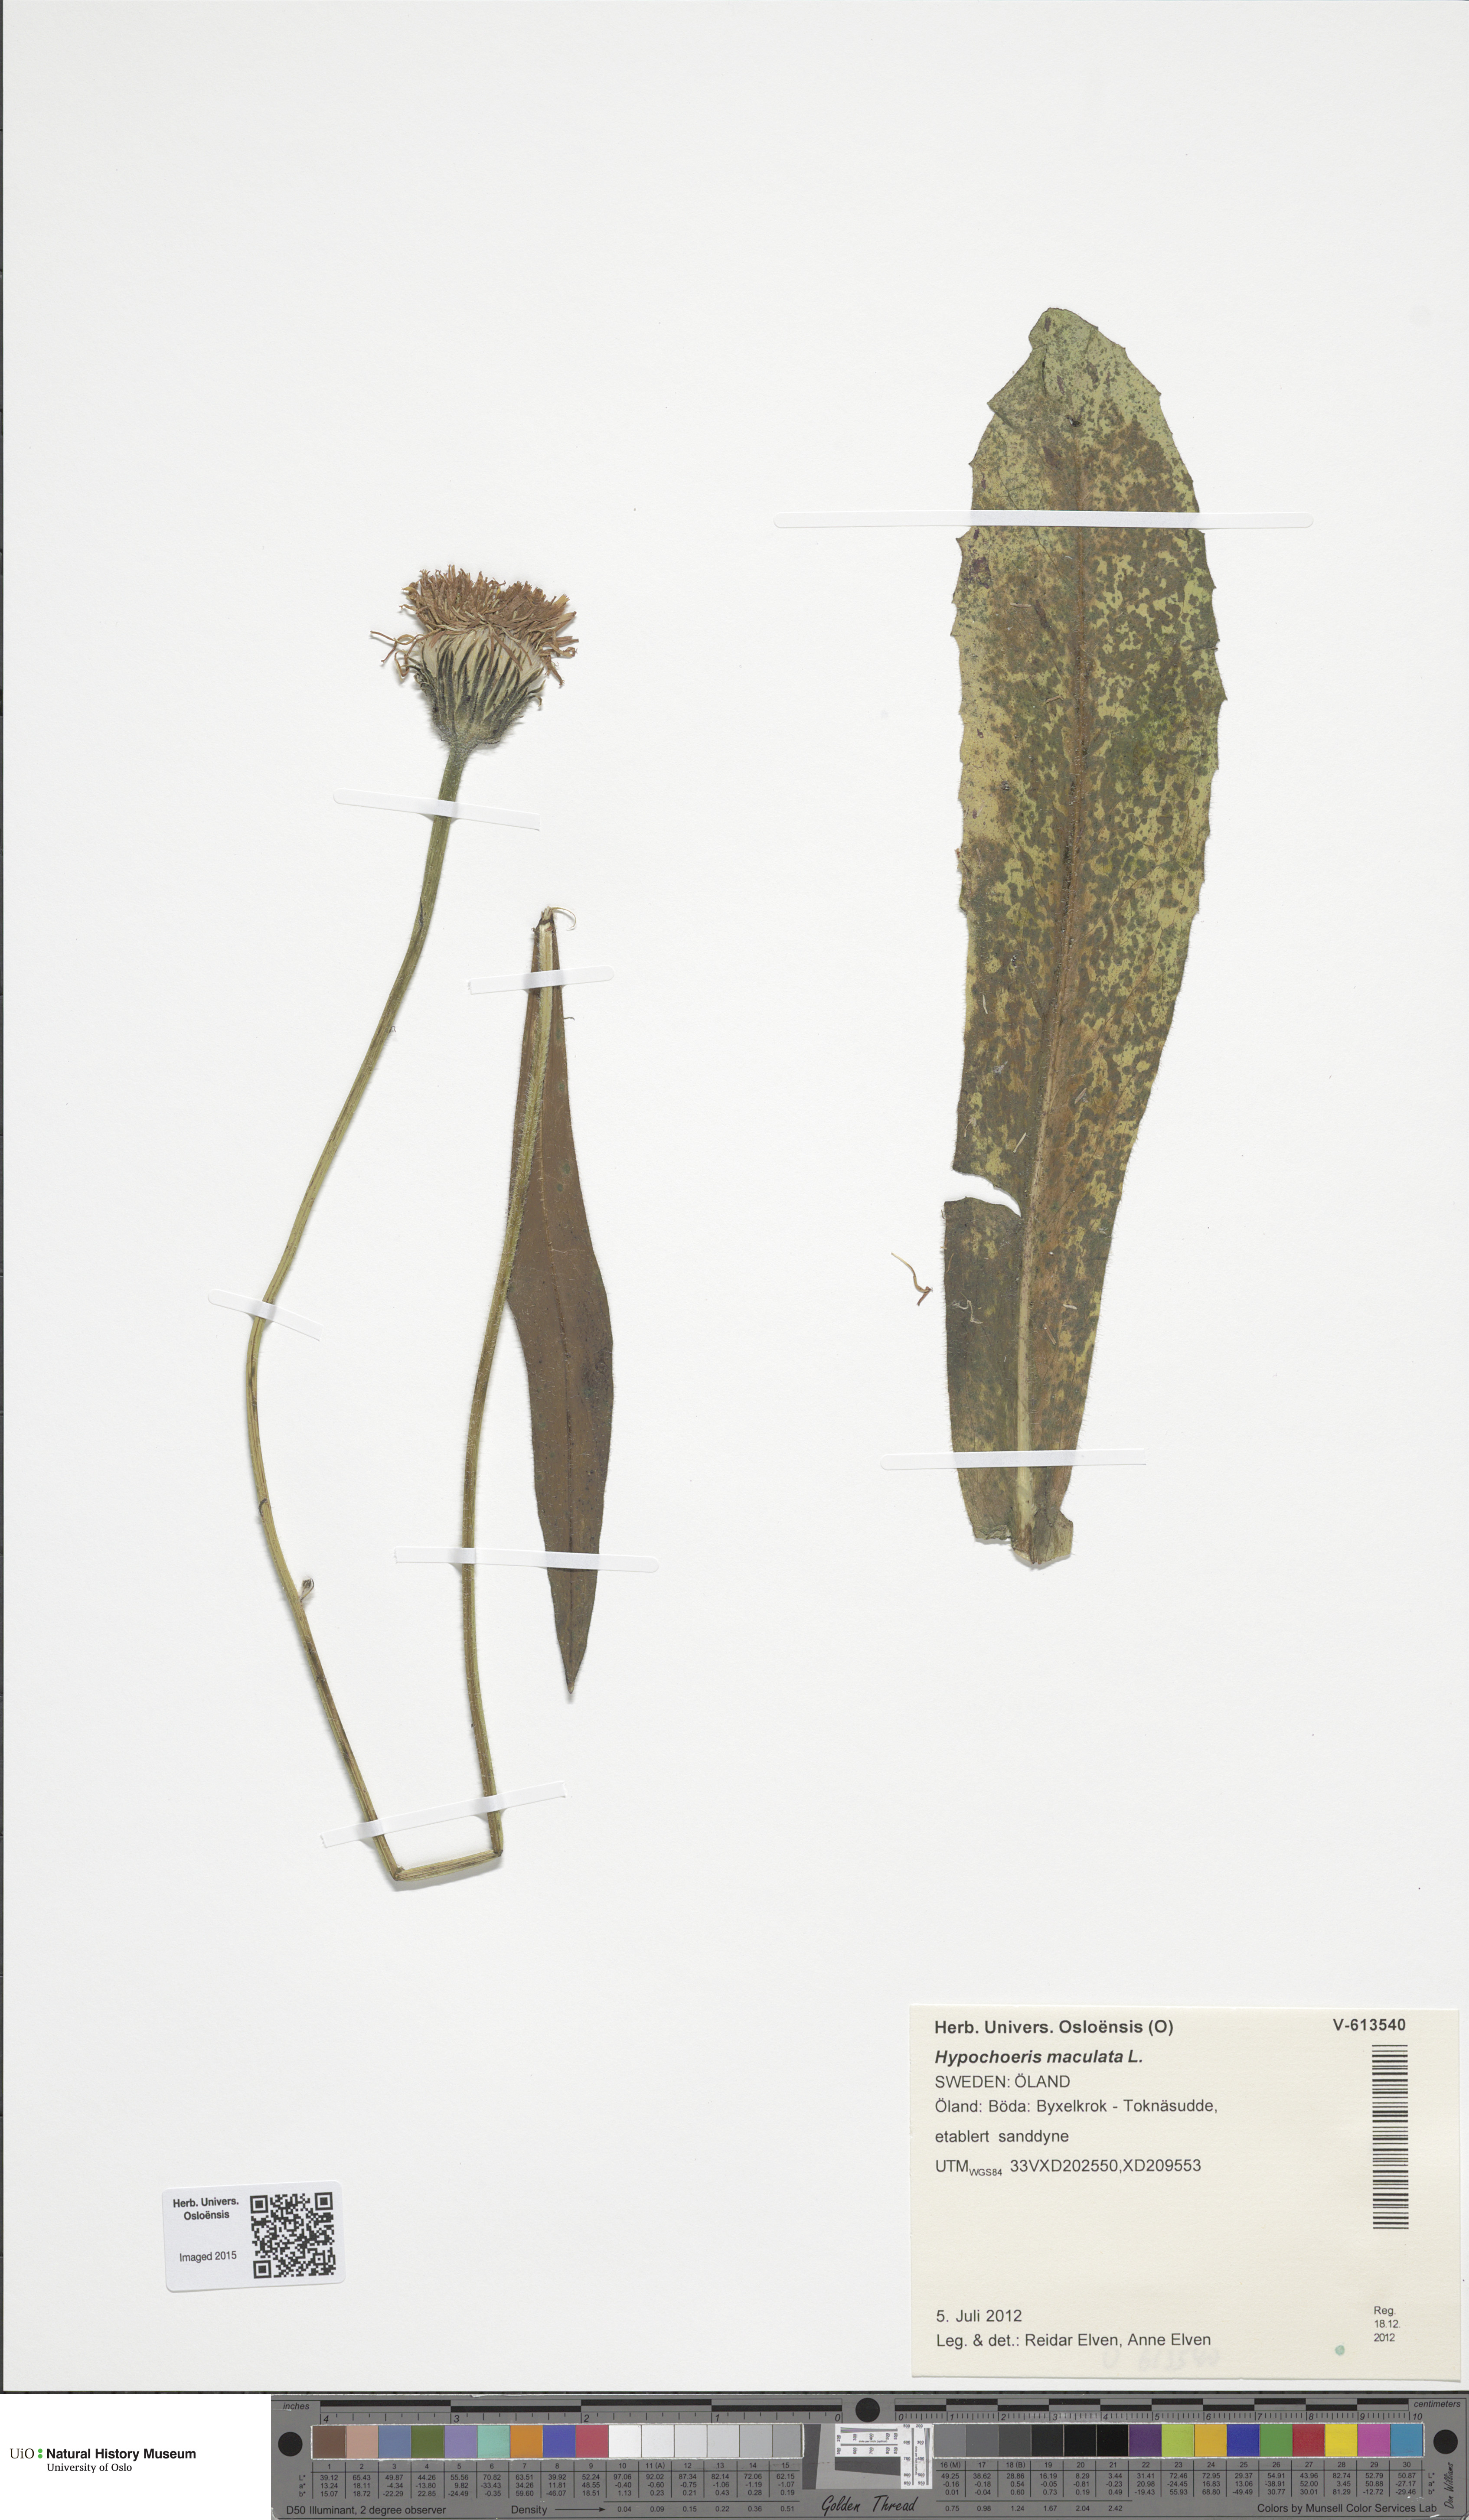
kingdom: Plantae
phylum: Tracheophyta
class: Magnoliopsida
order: Asterales
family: Asteraceae
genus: Trommsdorffia
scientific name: Trommsdorffia maculata
